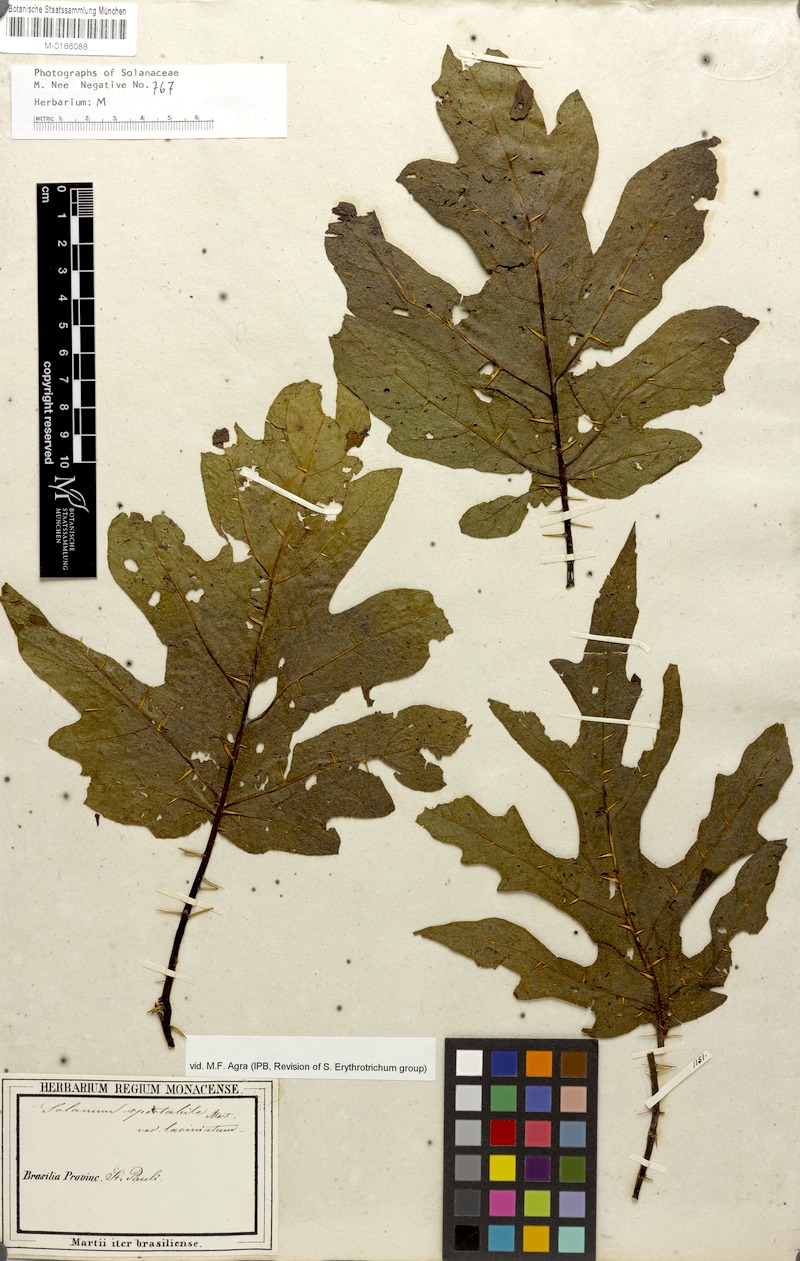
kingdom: Plantae
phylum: Tracheophyta
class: Magnoliopsida
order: Solanales
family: Solanaceae
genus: Solanum
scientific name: Solanum subumbellatum
